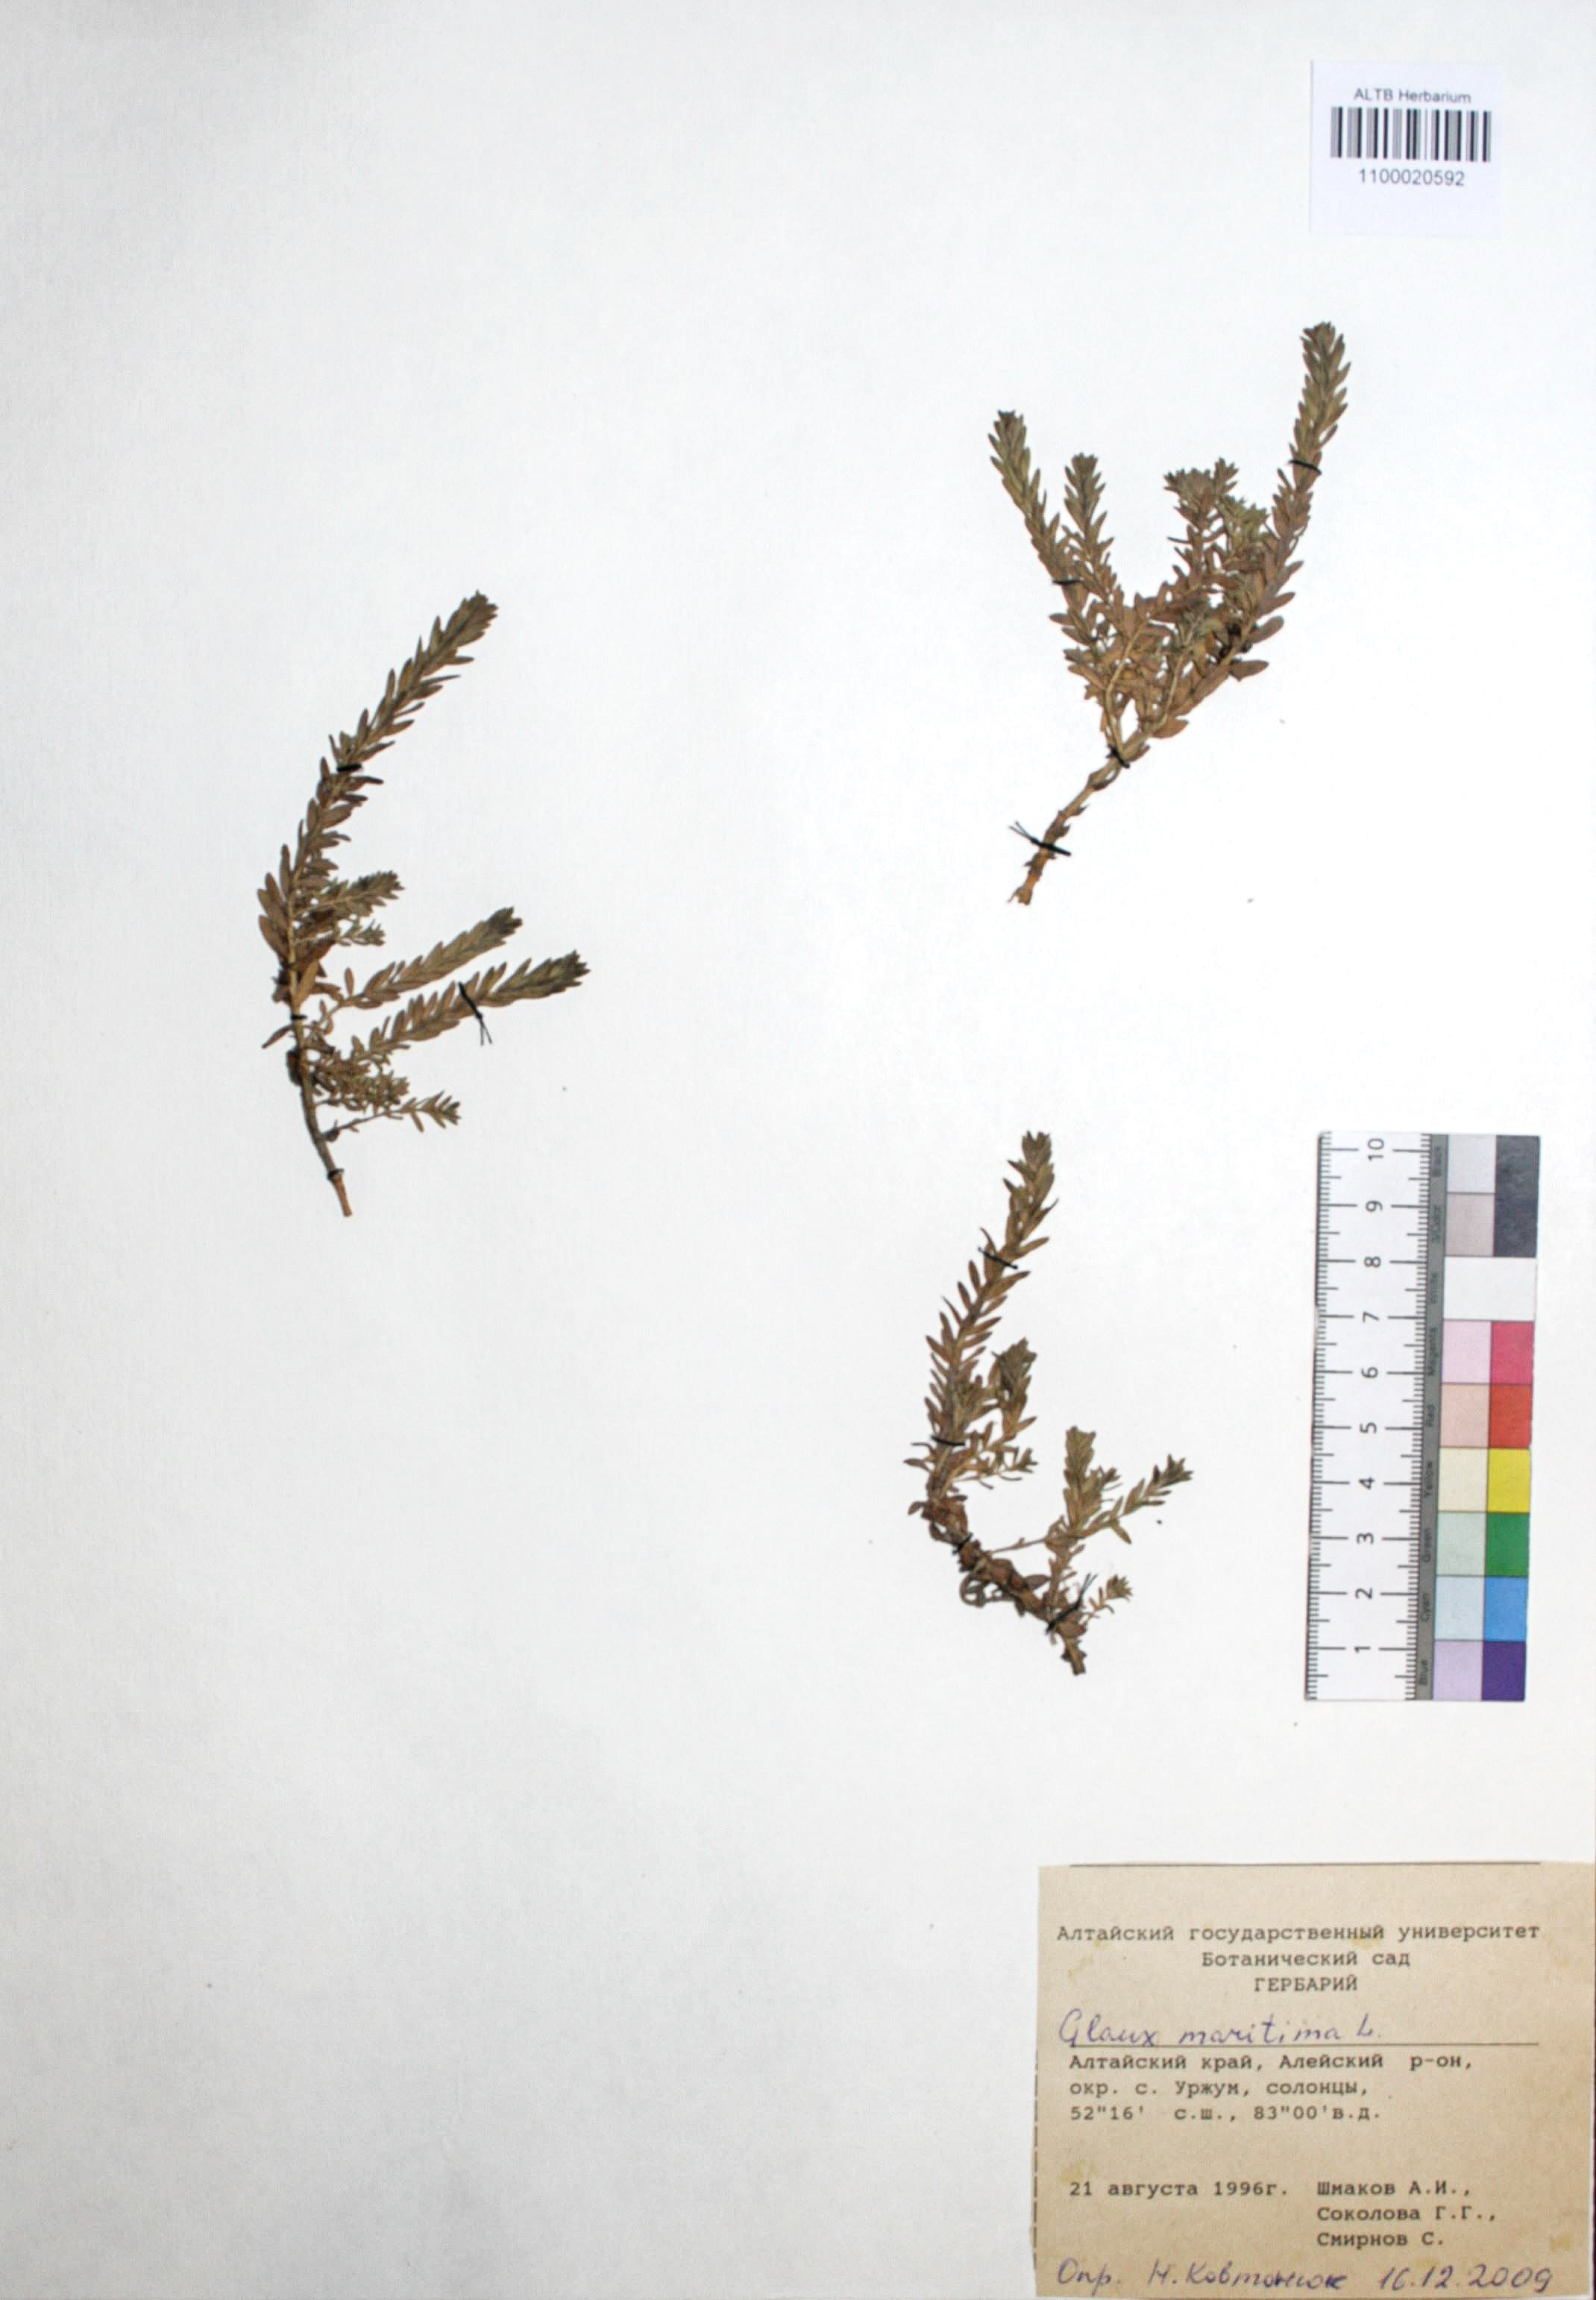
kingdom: Plantae
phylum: Tracheophyta
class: Magnoliopsida
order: Ericales
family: Primulaceae
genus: Lysimachia
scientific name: Lysimachia maritima
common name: Sea milkwort
